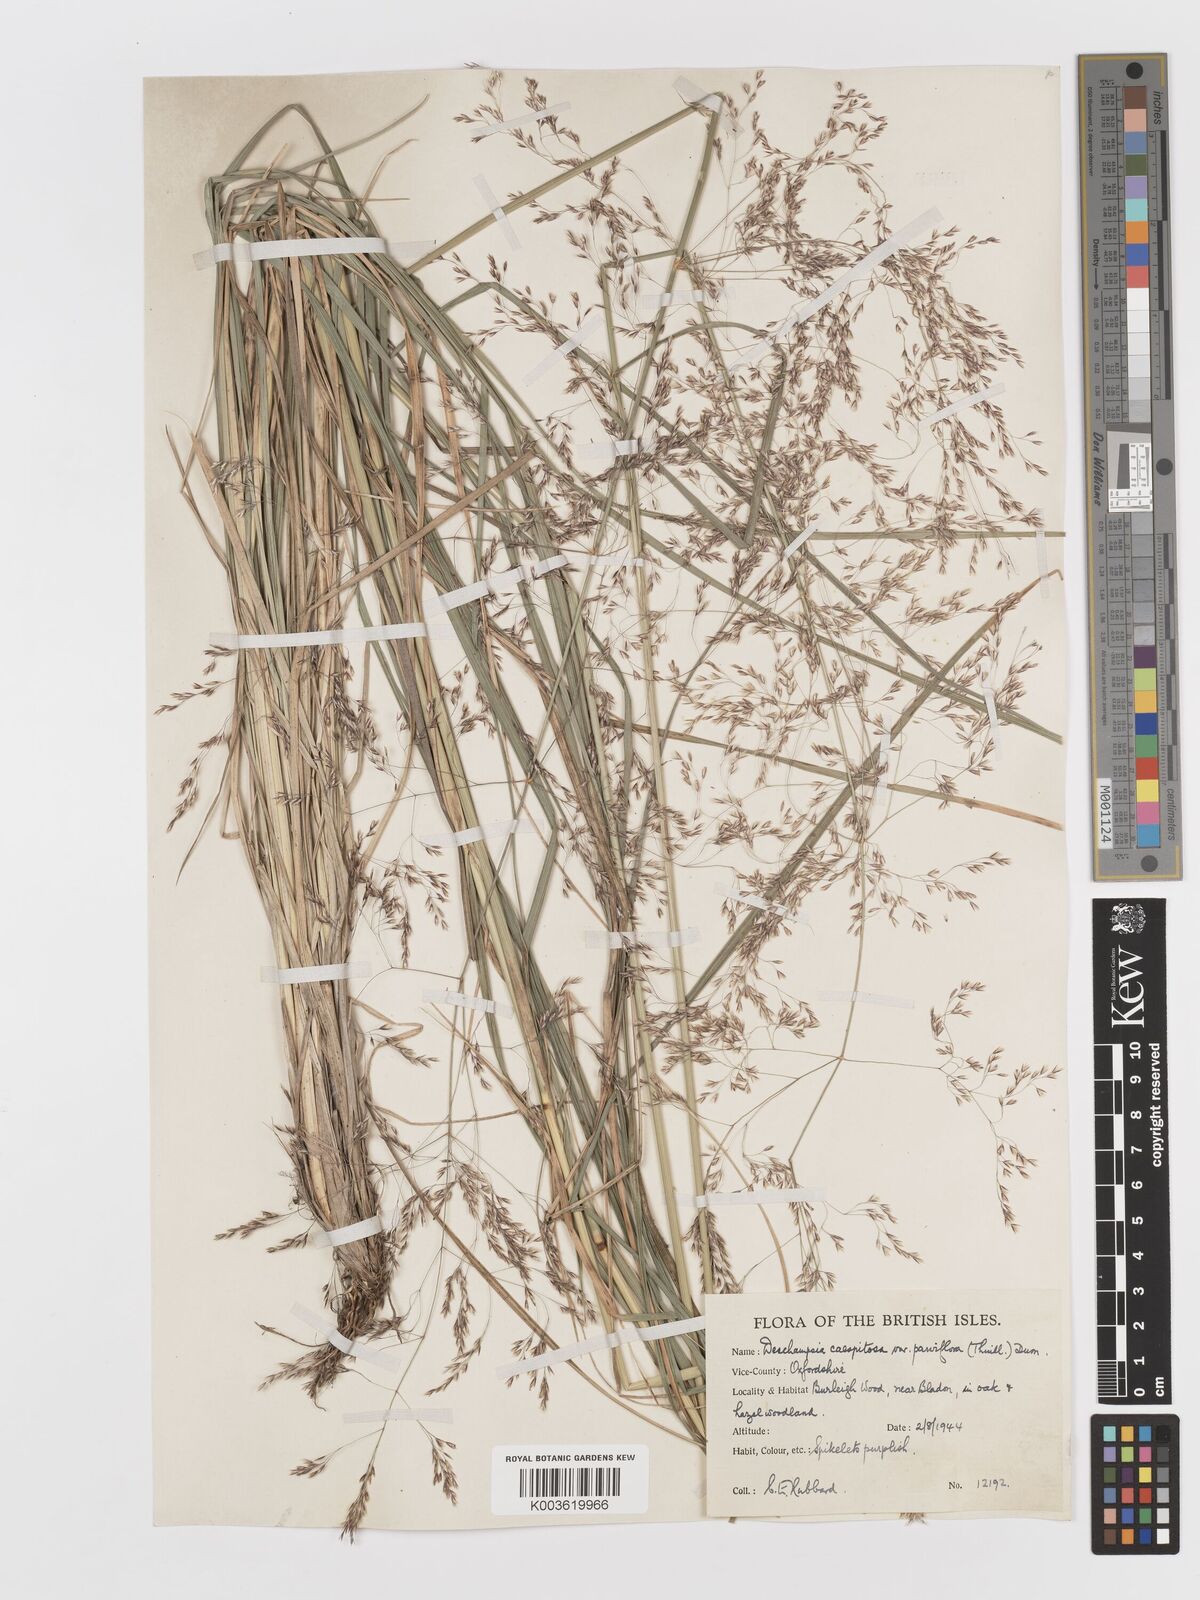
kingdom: Plantae
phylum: Tracheophyta
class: Liliopsida
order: Poales
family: Poaceae
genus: Deschampsia
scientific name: Deschampsia cespitosa
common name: Tufted hair-grass
